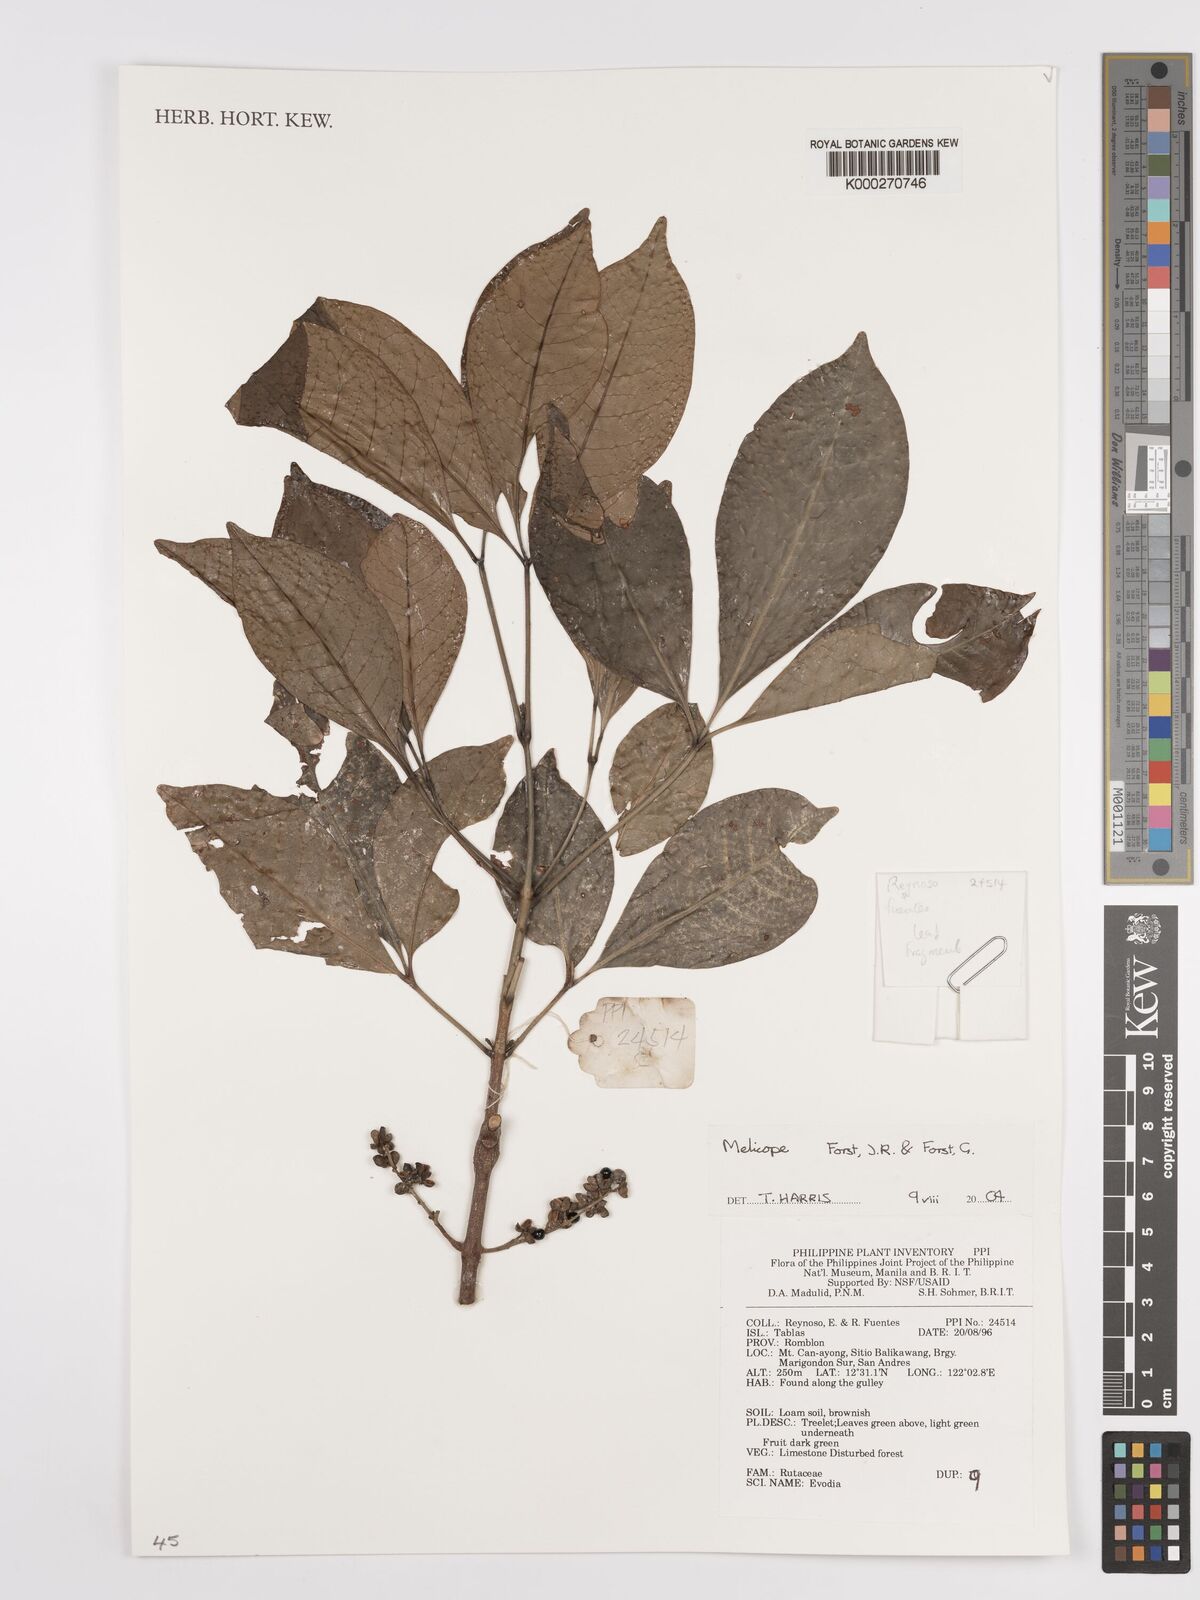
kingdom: Plantae
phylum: Tracheophyta
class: Magnoliopsida
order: Sapindales
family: Rutaceae
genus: Melicope
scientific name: Melicope
